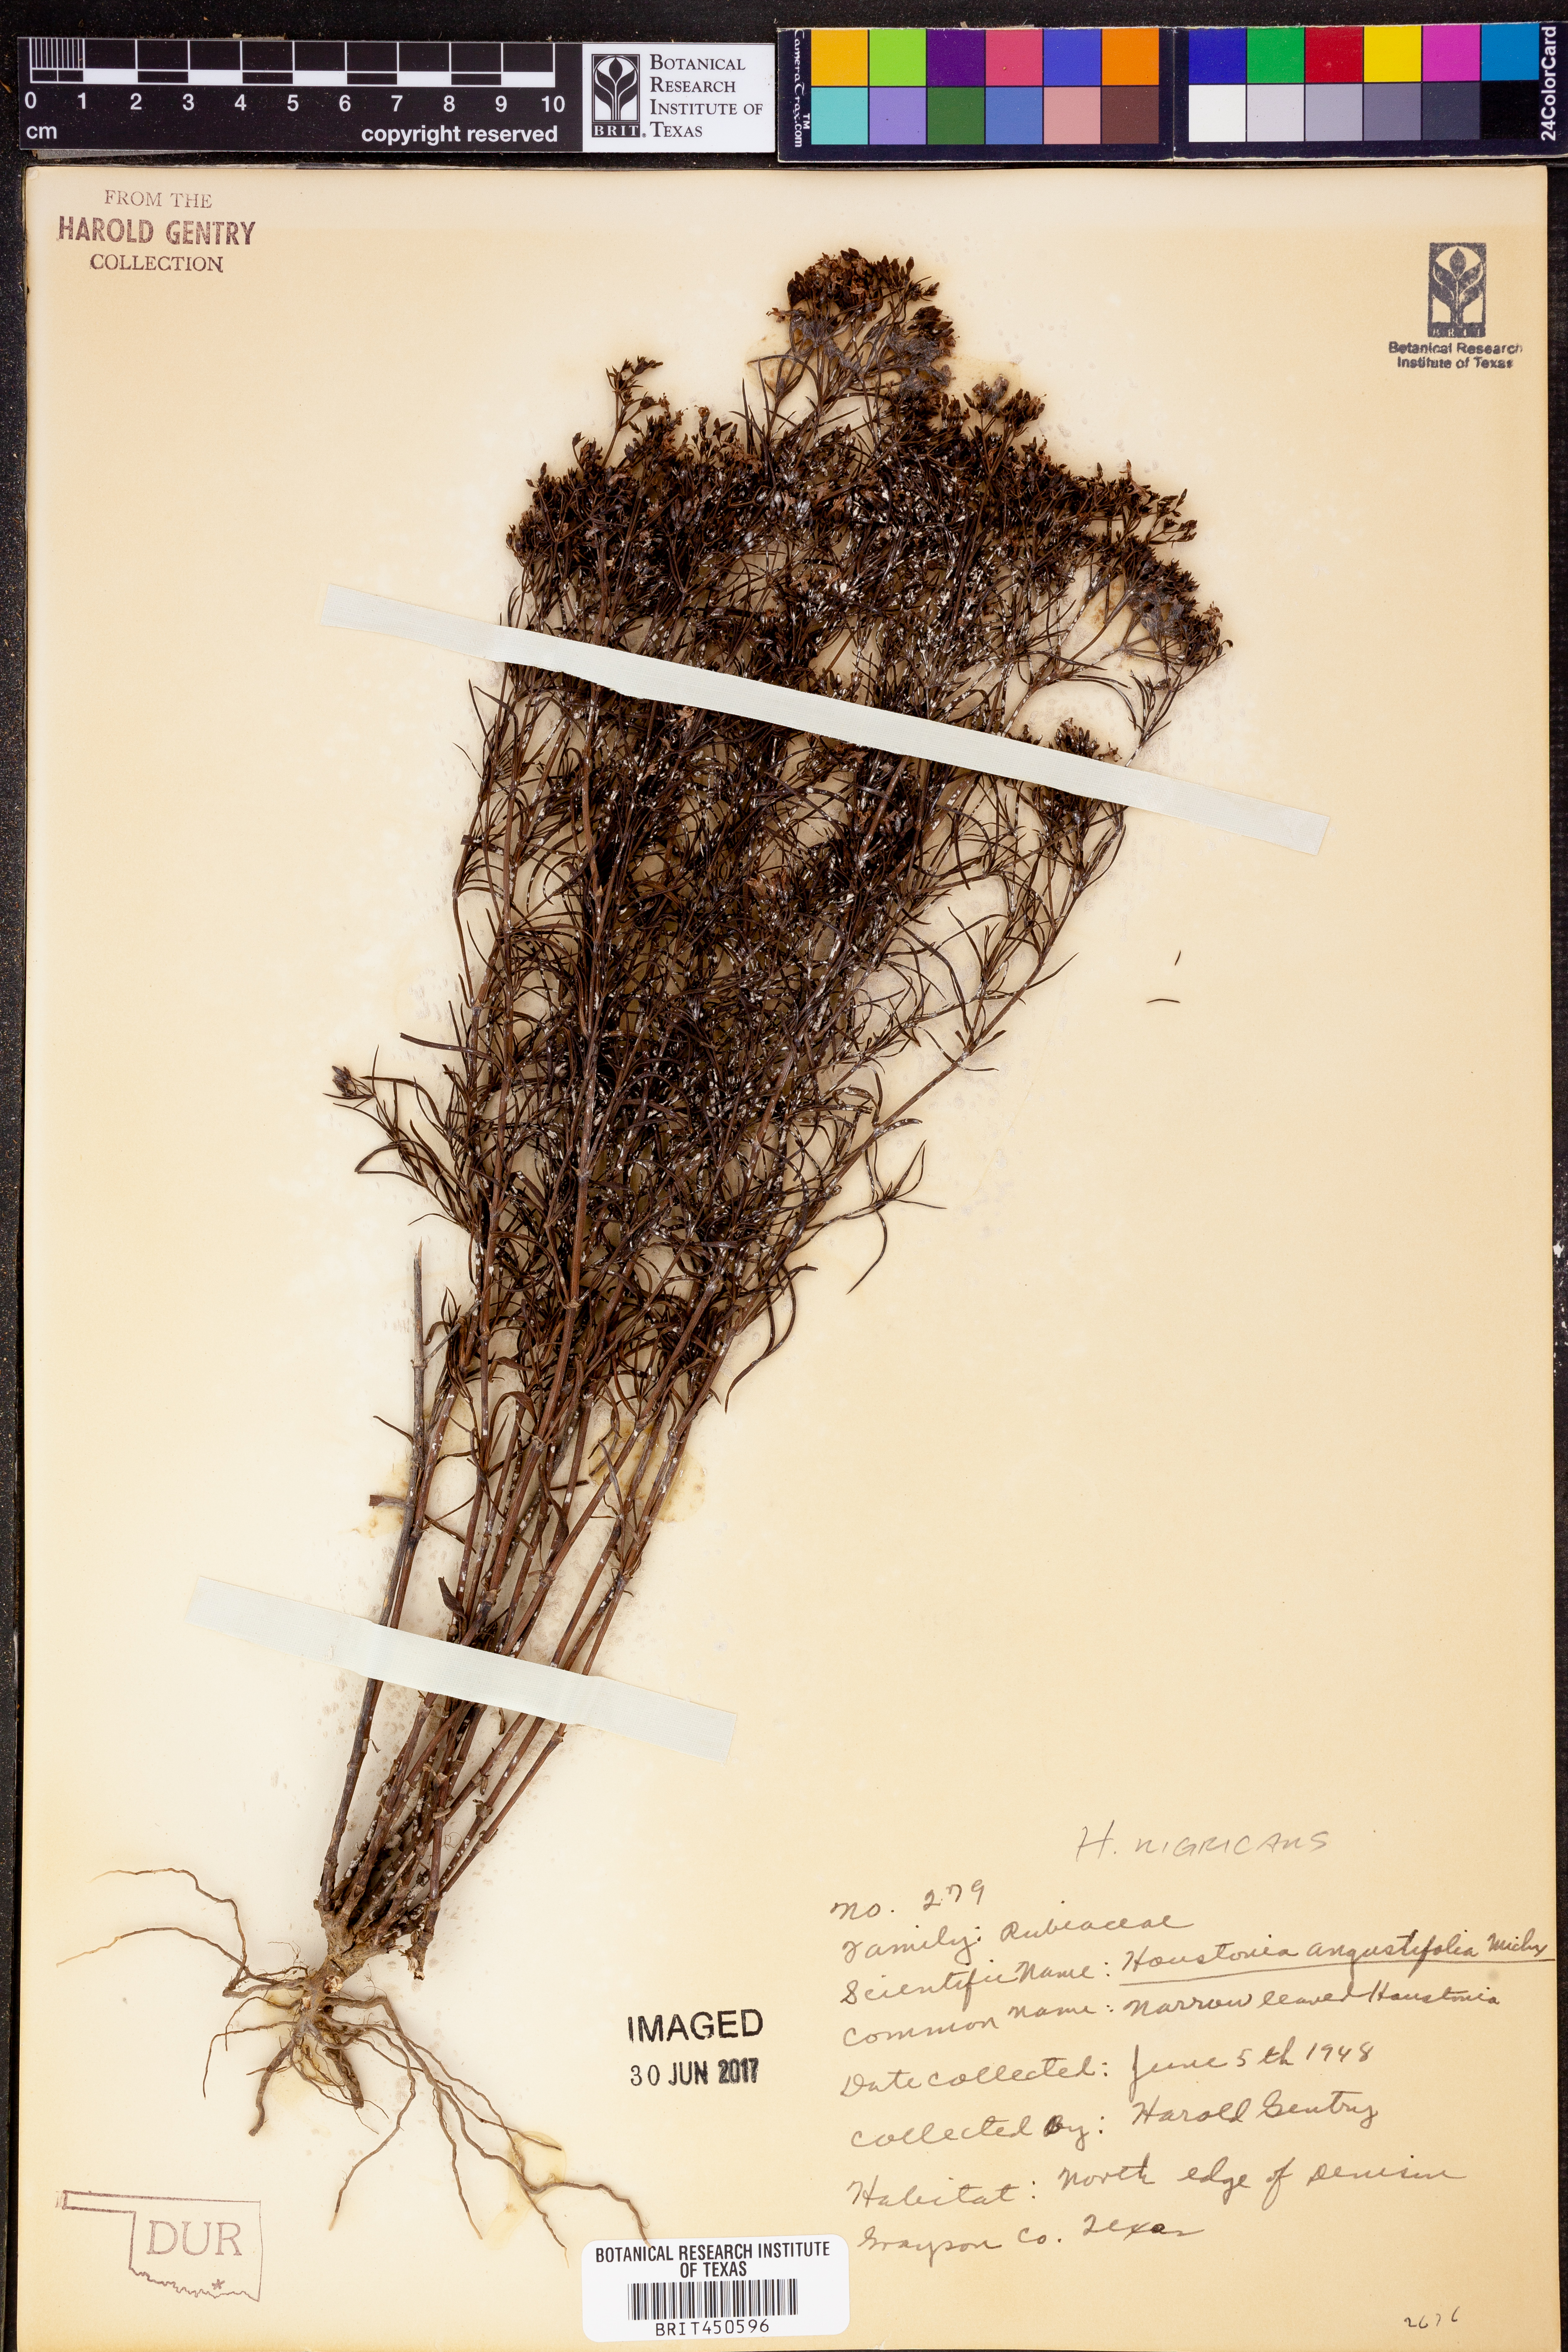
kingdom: Plantae
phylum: Tracheophyta
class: Magnoliopsida
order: Gentianales
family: Rubiaceae
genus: Stenaria
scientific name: Stenaria nigricans
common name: Diamondflowers
